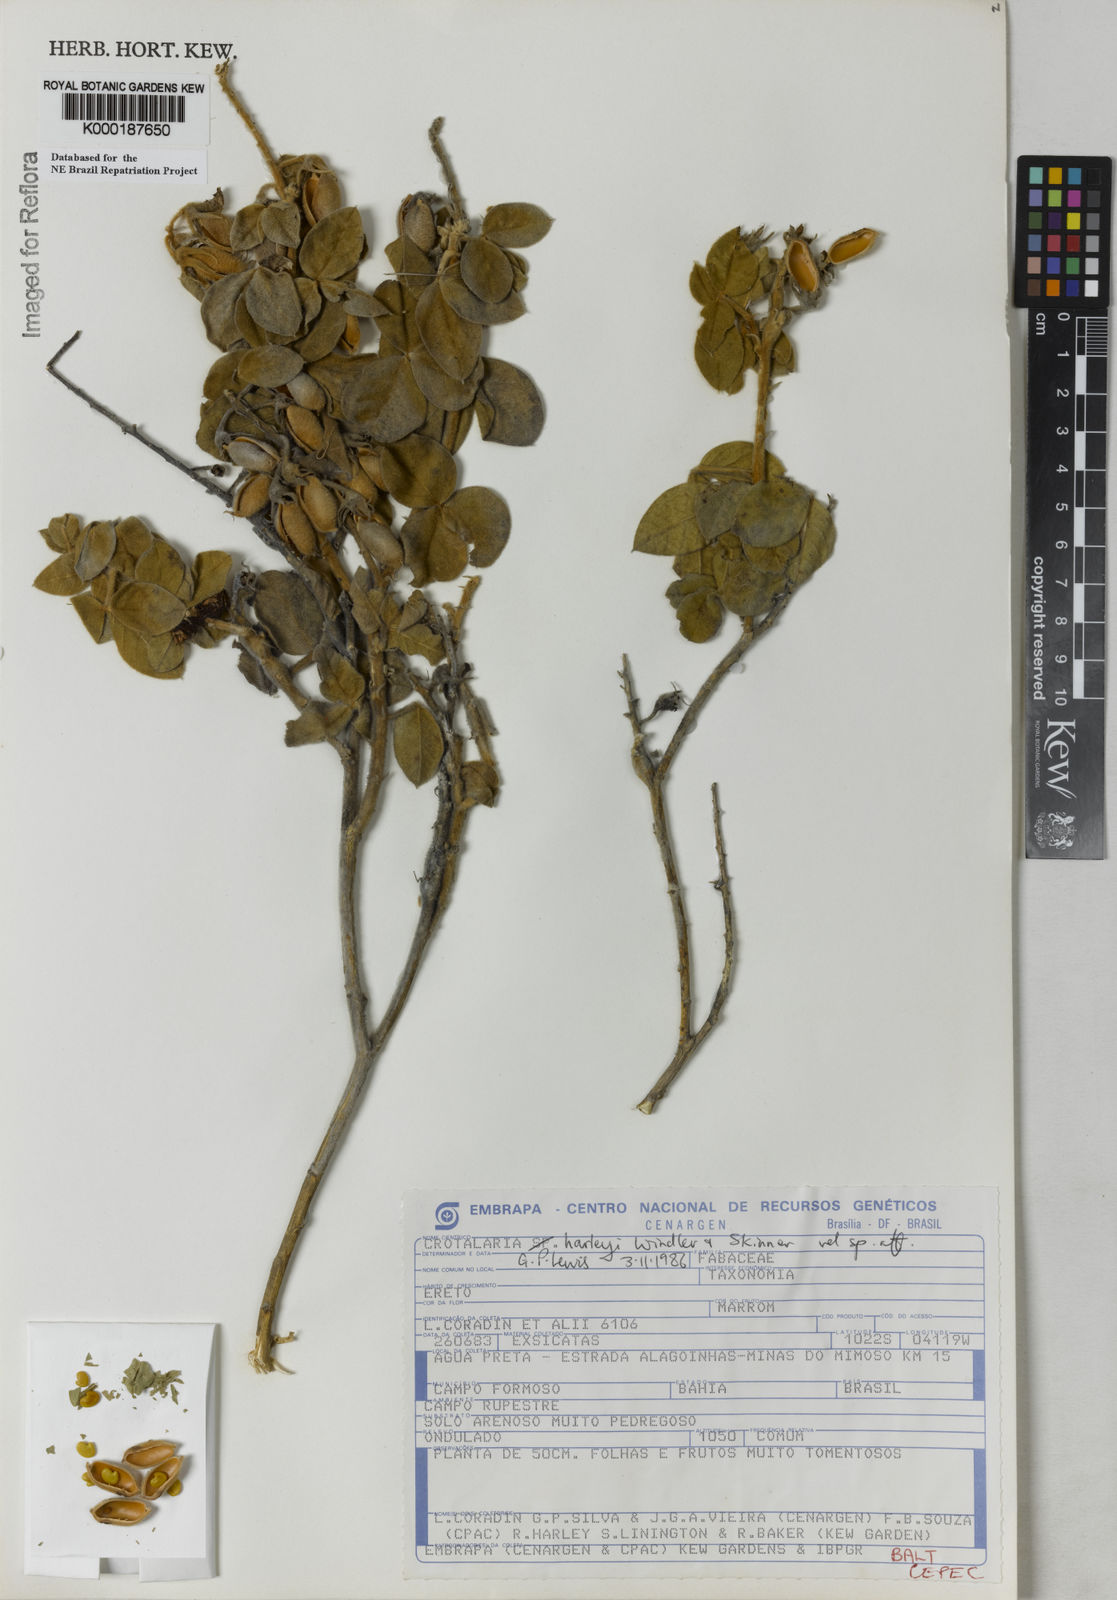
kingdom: Plantae
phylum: Tracheophyta
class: Magnoliopsida
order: Fabales
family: Fabaceae
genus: Crotalaria
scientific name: Crotalaria harleyi
